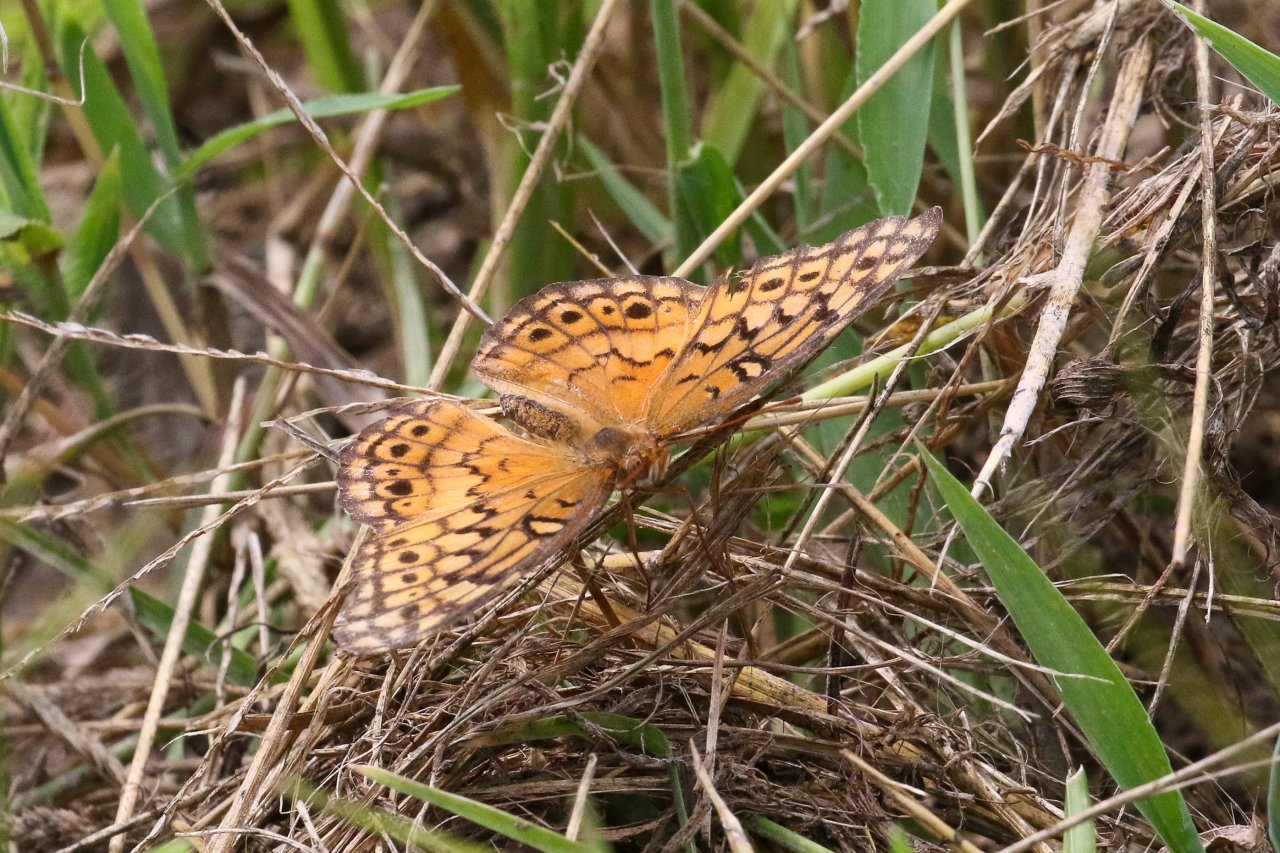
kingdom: Animalia
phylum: Arthropoda
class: Insecta
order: Lepidoptera
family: Nymphalidae
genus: Euptoieta
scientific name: Euptoieta claudia
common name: Variegated Fritillary
